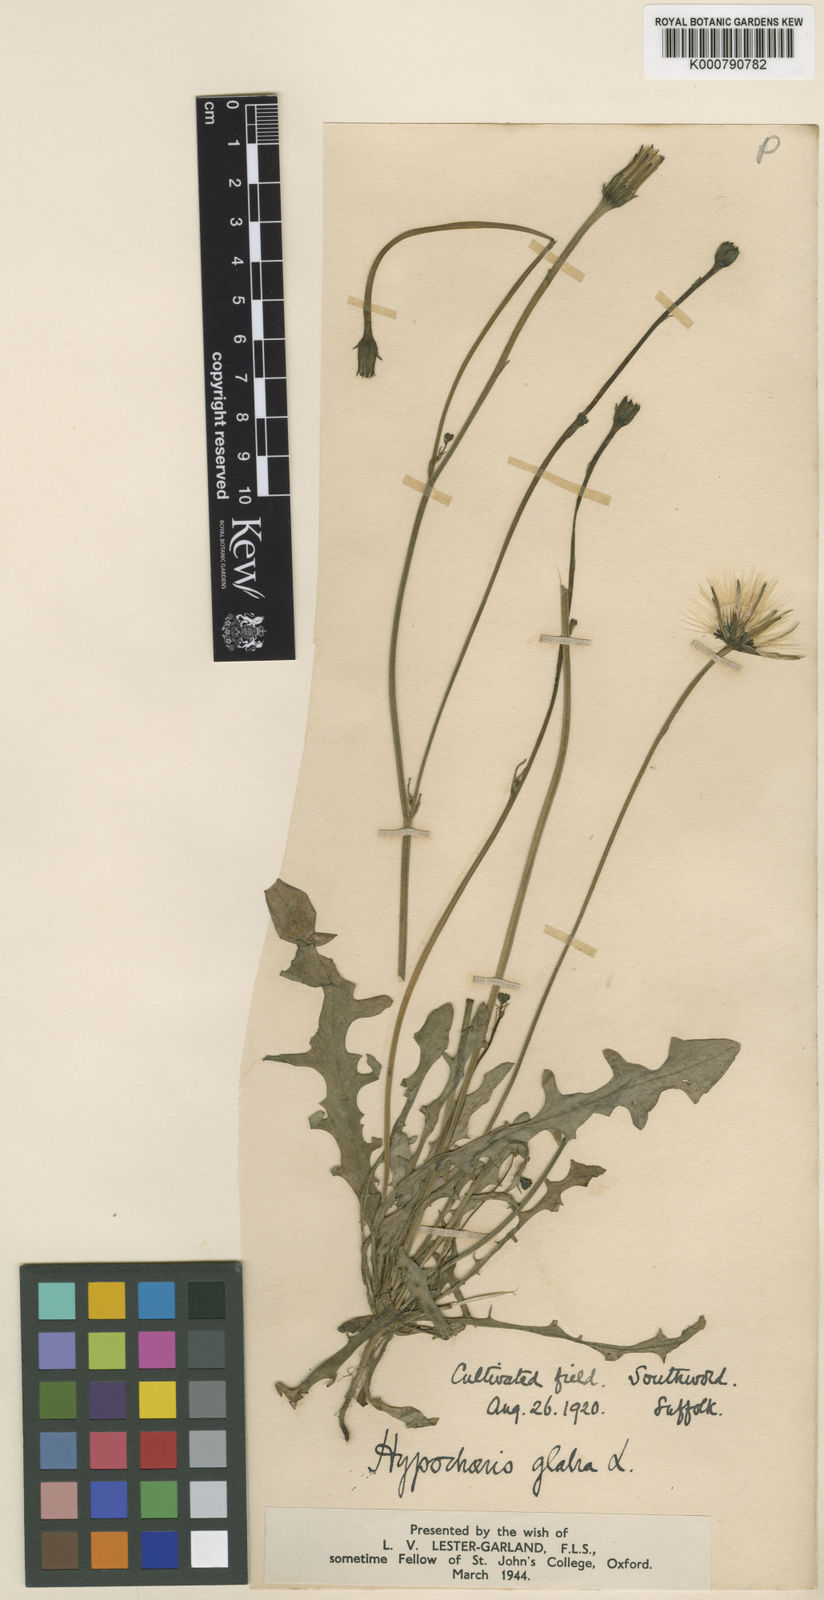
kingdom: Plantae
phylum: Tracheophyta
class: Magnoliopsida
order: Asterales
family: Asteraceae
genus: Hypochaeris
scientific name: Hypochaeris glabra
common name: Smooth catsear
